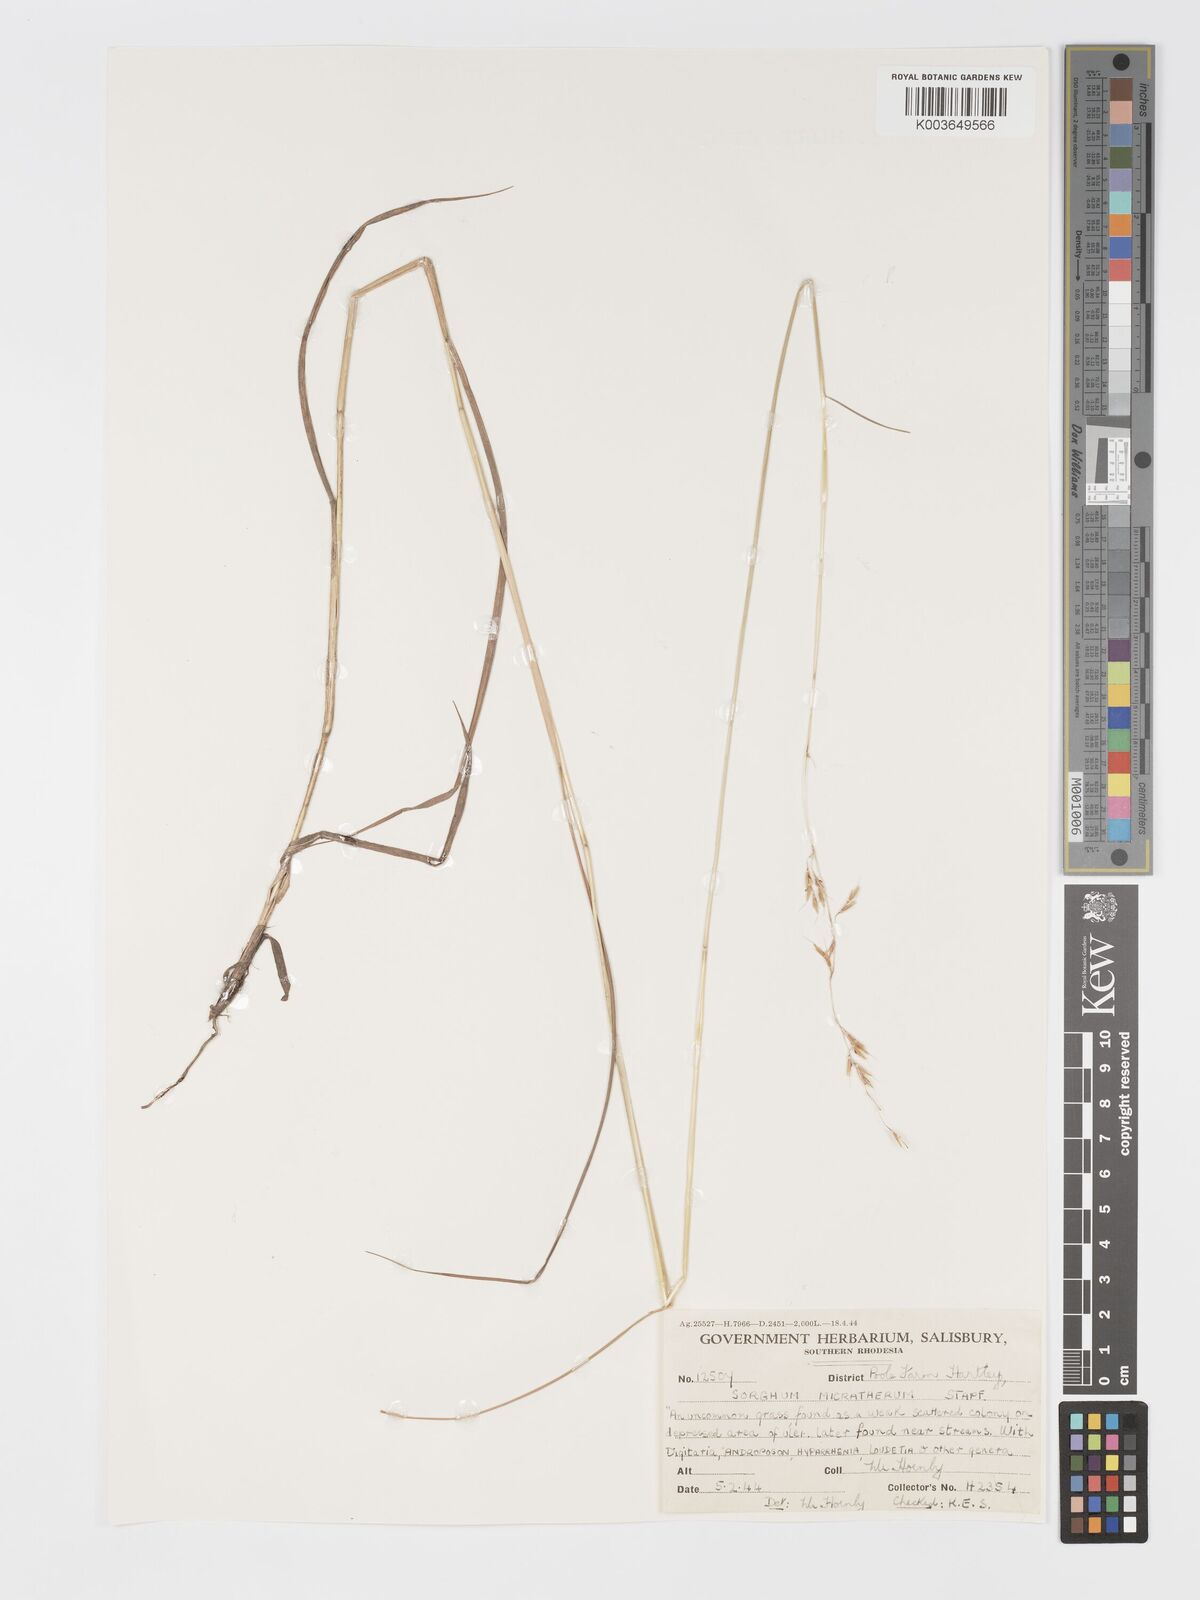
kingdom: Plantae
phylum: Tracheophyta
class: Liliopsida
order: Poales
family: Poaceae
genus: Sorghastrum
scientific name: Sorghastrum nudipes
